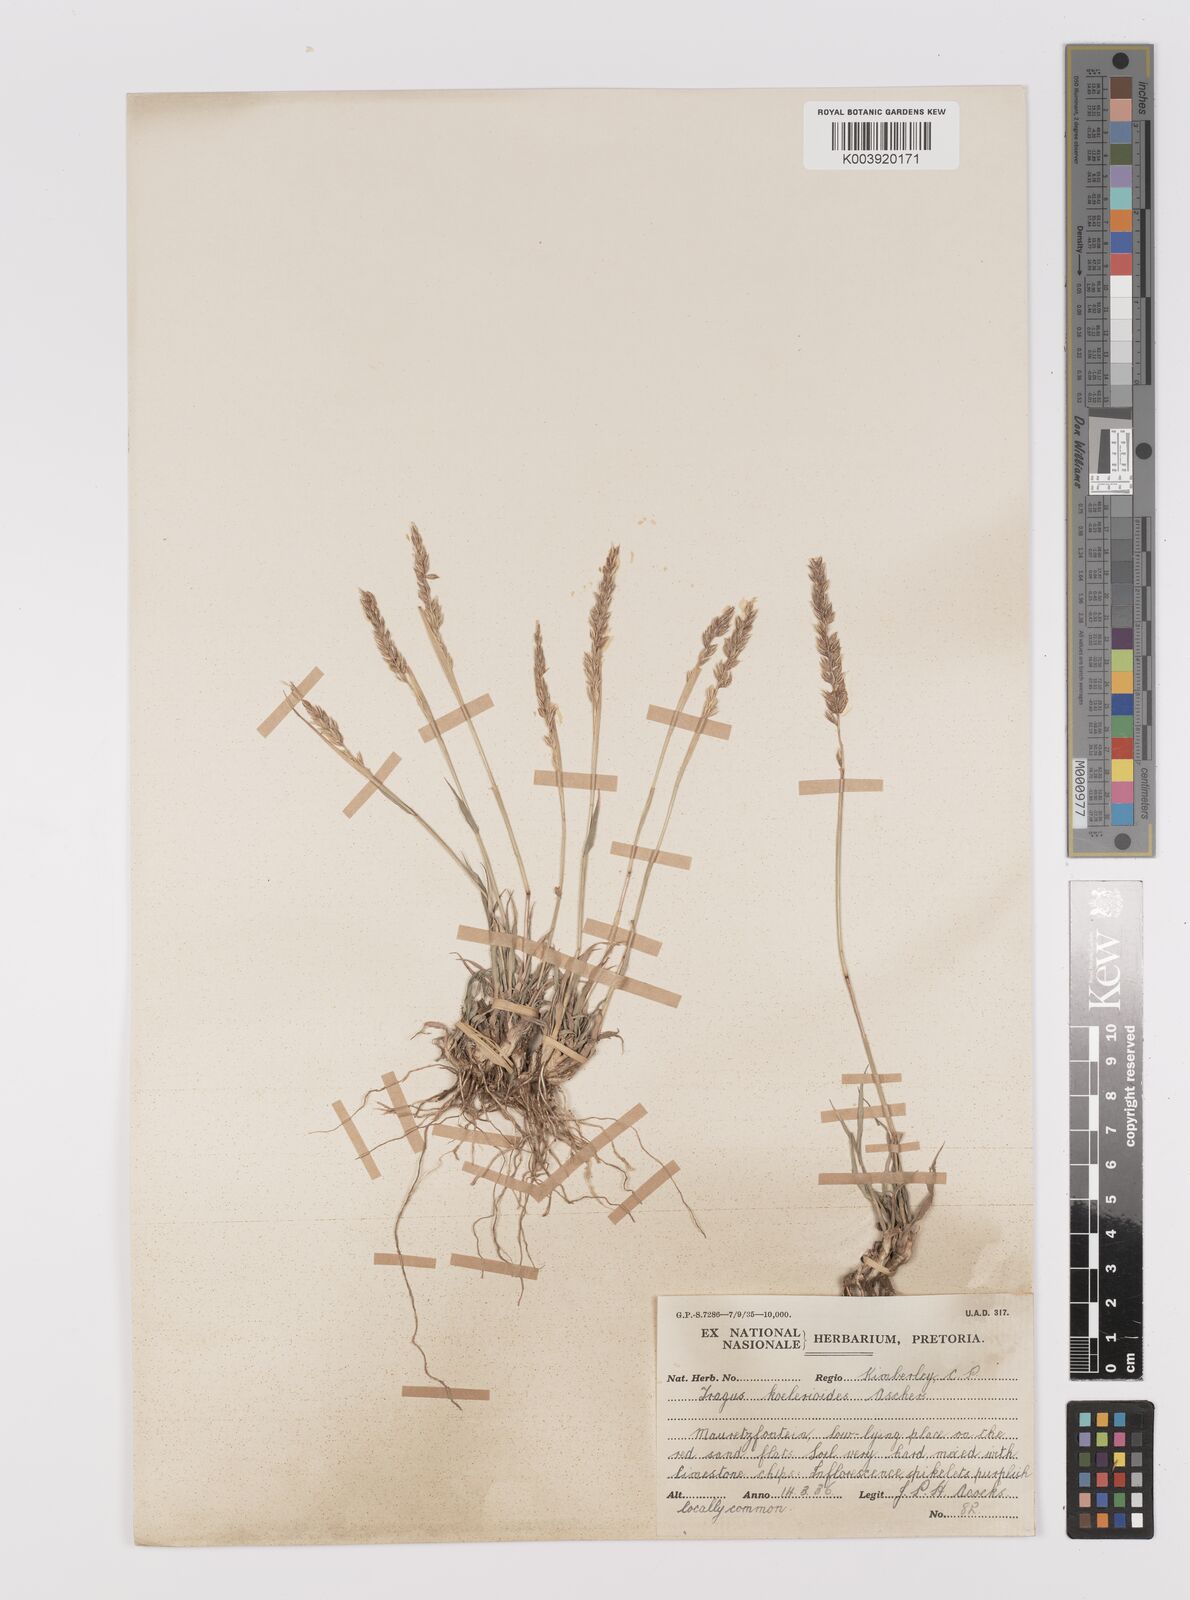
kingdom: Plantae
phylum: Tracheophyta
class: Liliopsida
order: Poales
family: Poaceae
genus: Tragus
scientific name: Tragus koelerioides
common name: Creeping carrot-seed grass
